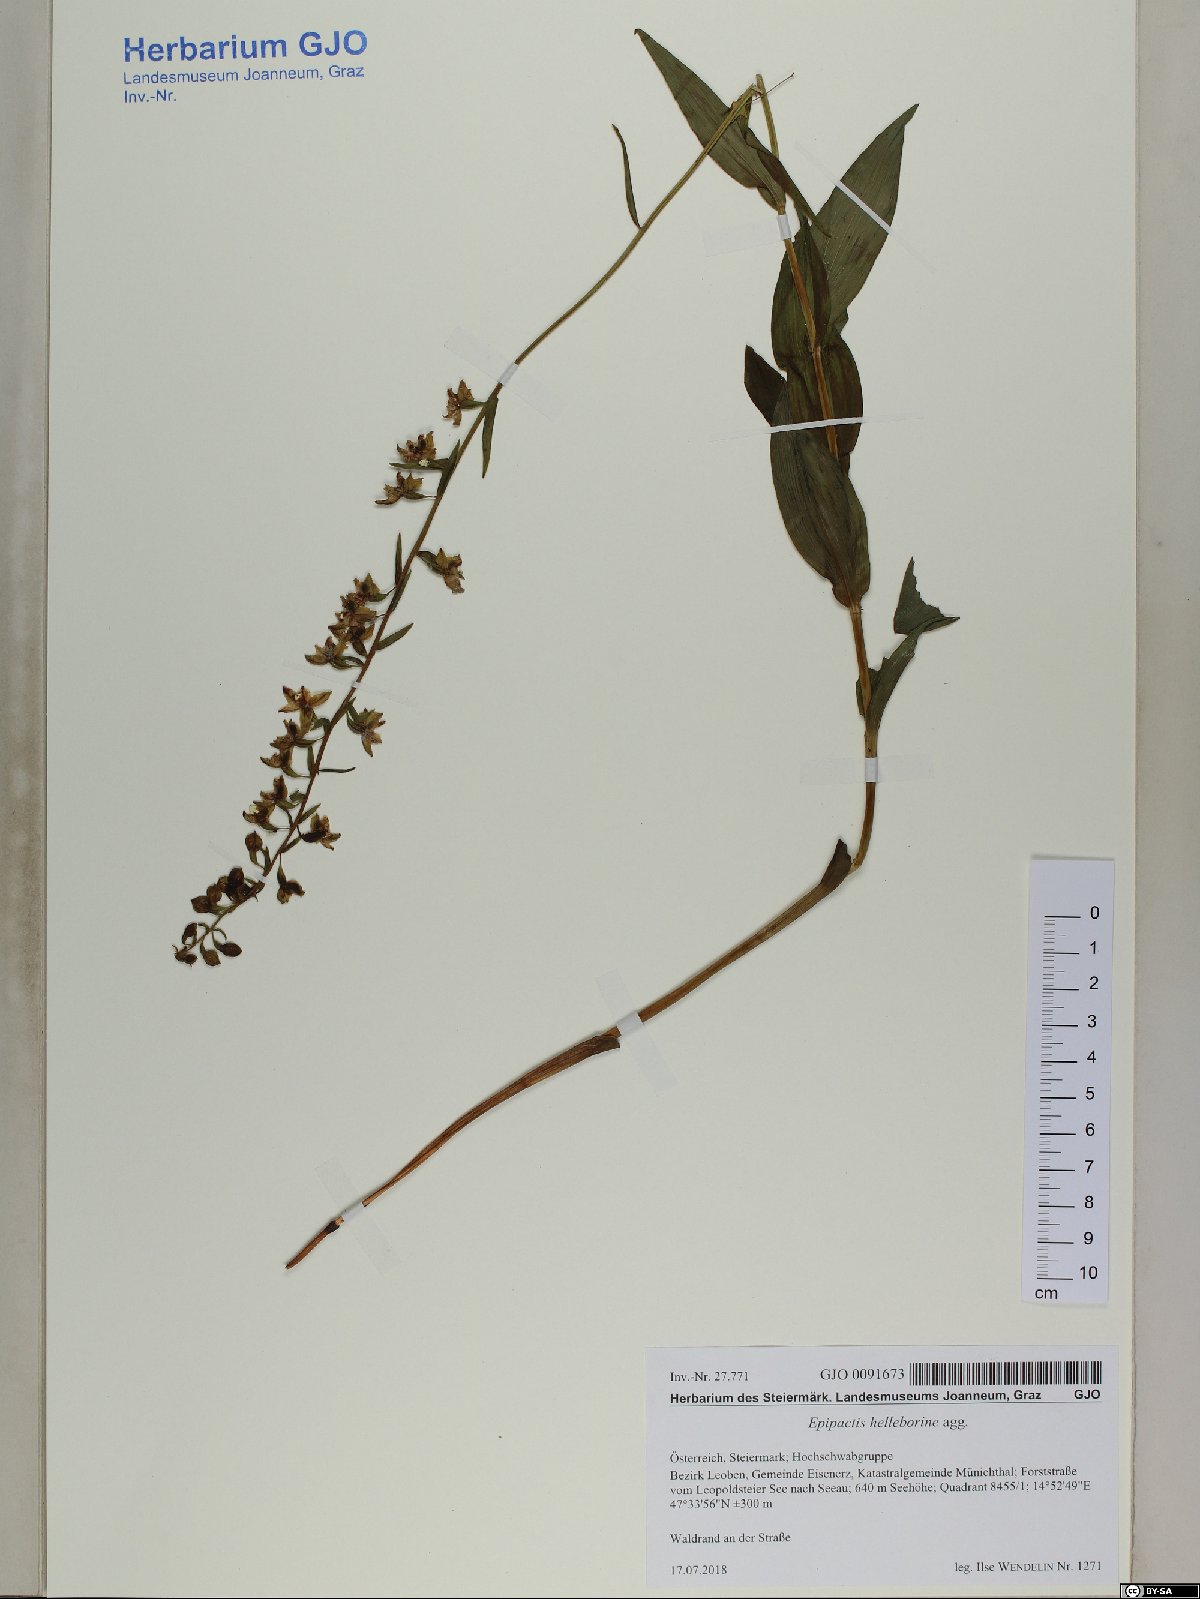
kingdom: Plantae
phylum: Tracheophyta
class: Liliopsida
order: Asparagales
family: Orchidaceae
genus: Epipactis
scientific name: Epipactis helleborine
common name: Broad-leaved helleborine
